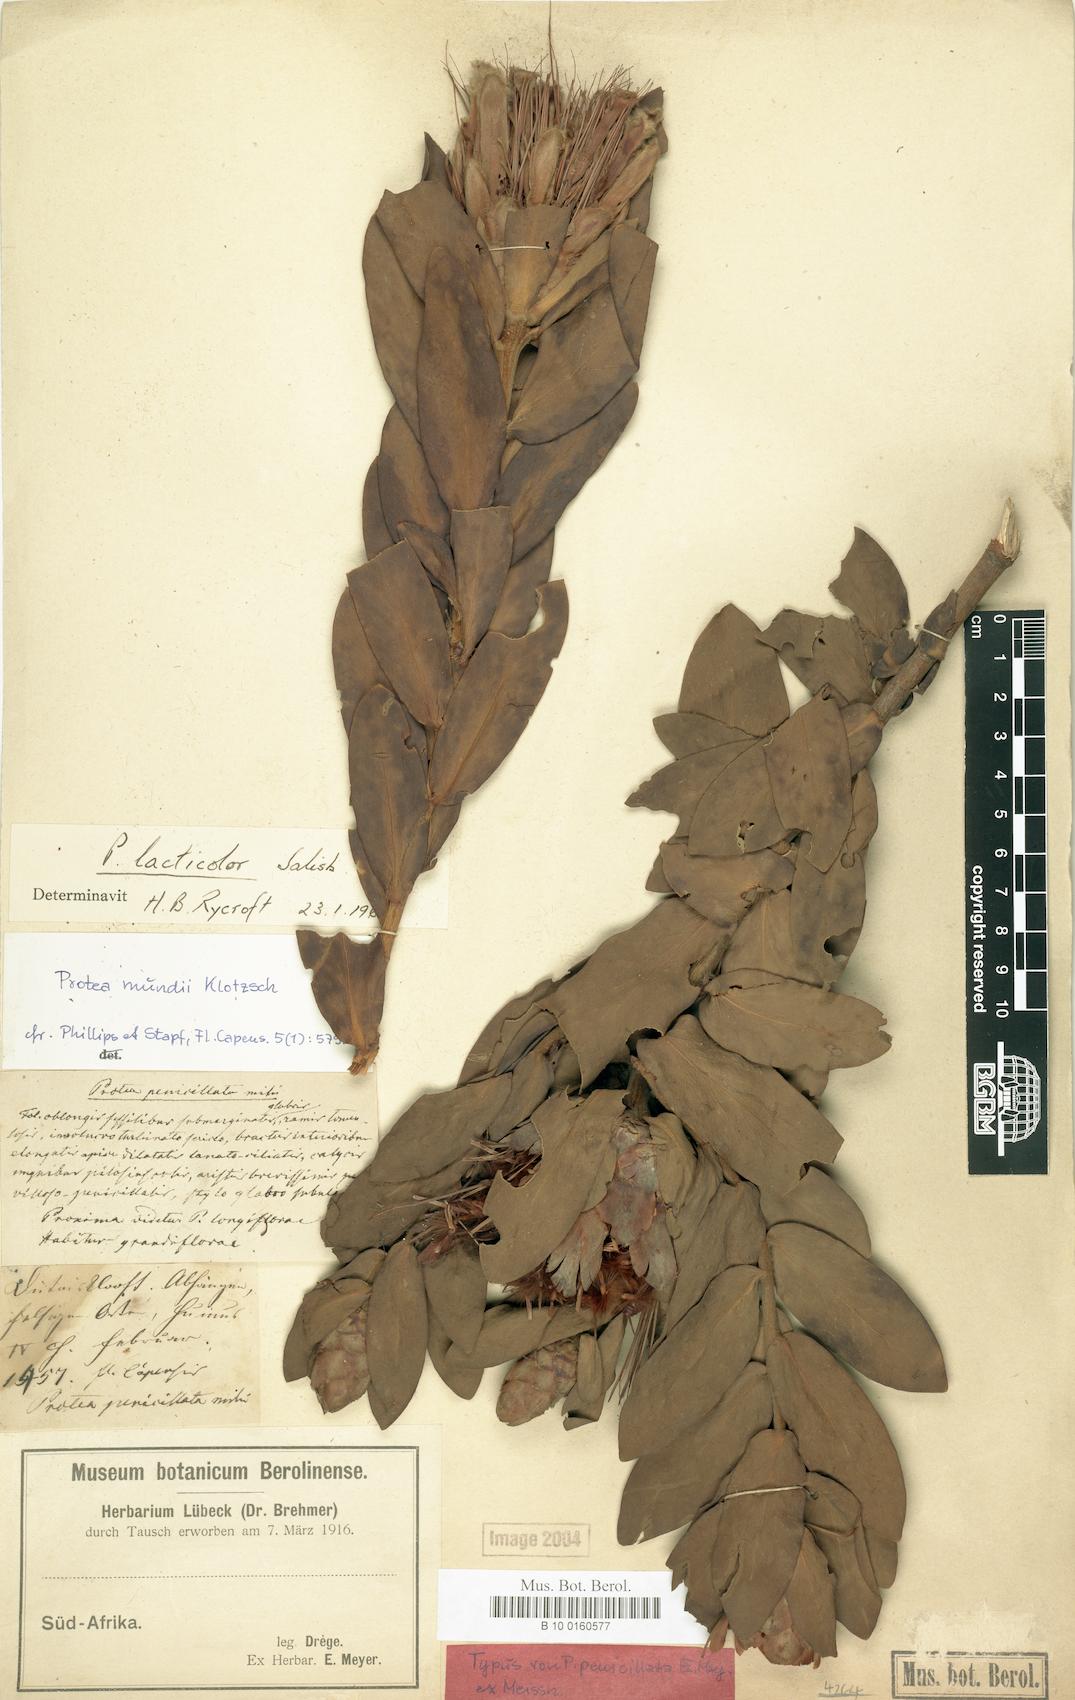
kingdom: Plantae
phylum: Tracheophyta
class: Magnoliopsida
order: Proteales
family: Proteaceae
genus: Protea
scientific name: Protea lacticolor
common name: Hottentot sugarbush
